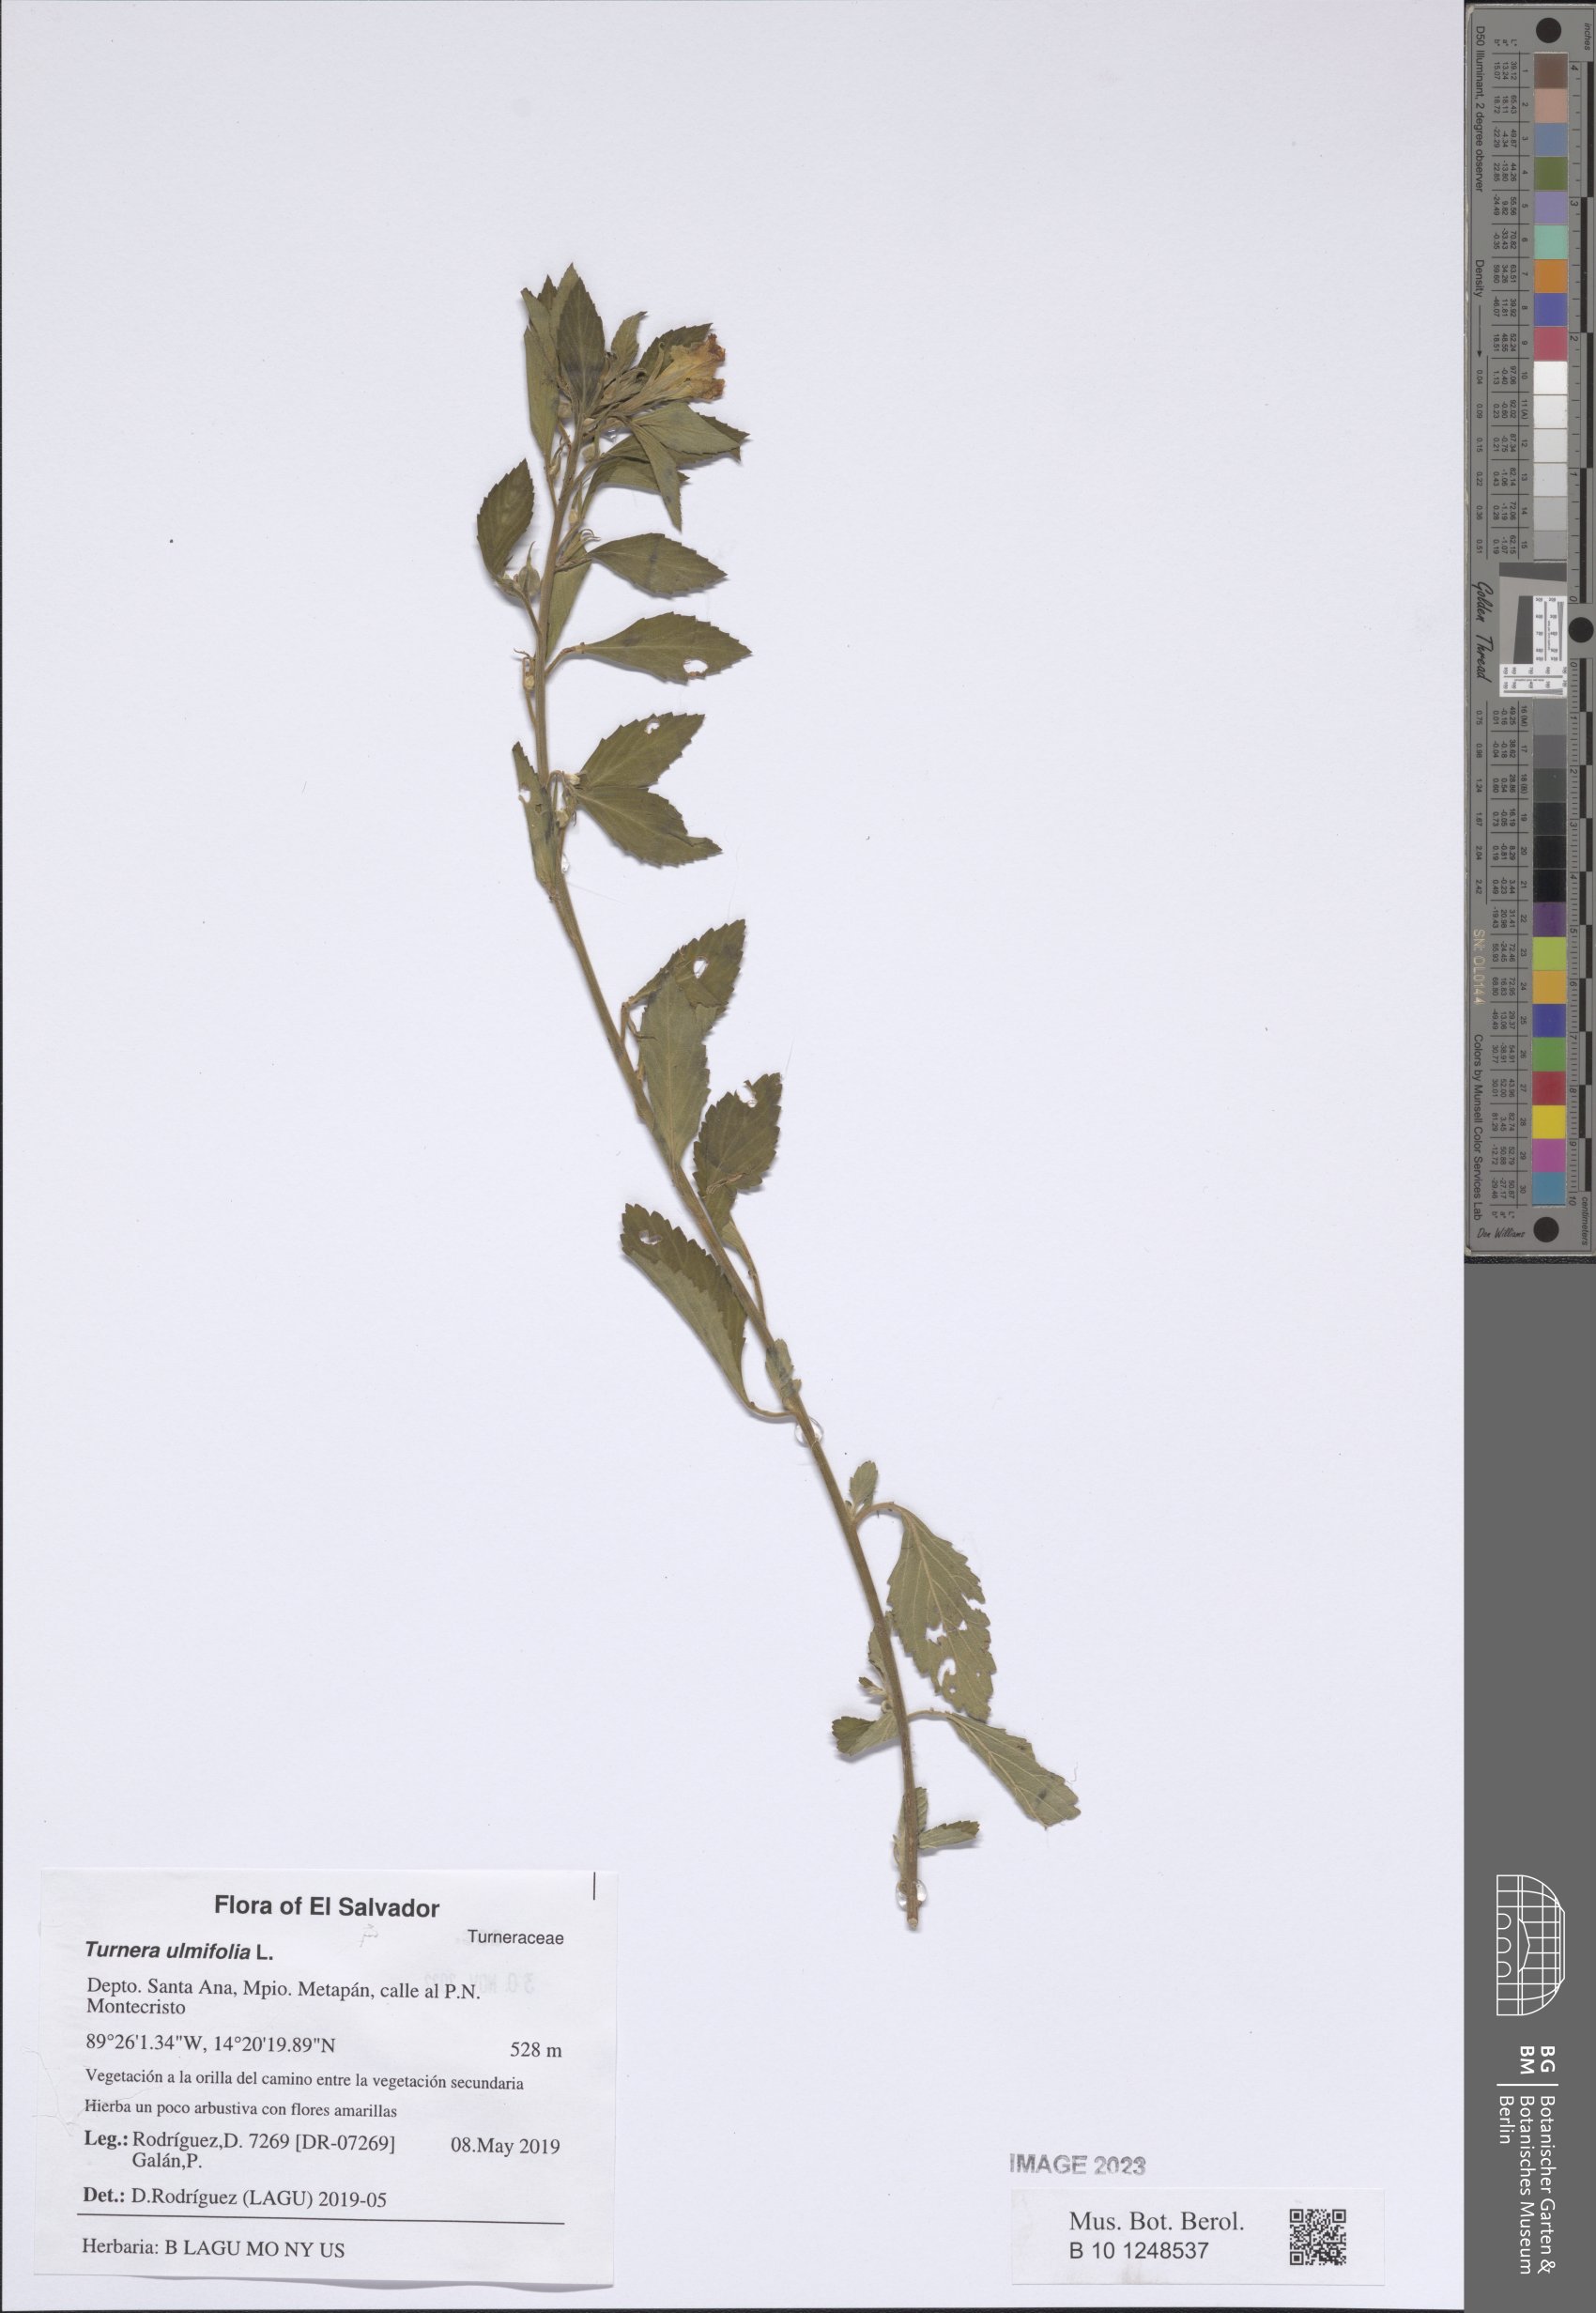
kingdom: Plantae
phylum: Tracheophyta
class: Magnoliopsida
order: Malpighiales
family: Turneraceae
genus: Turnera
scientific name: Turnera ulmifolia
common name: Ramgoat dashalong
